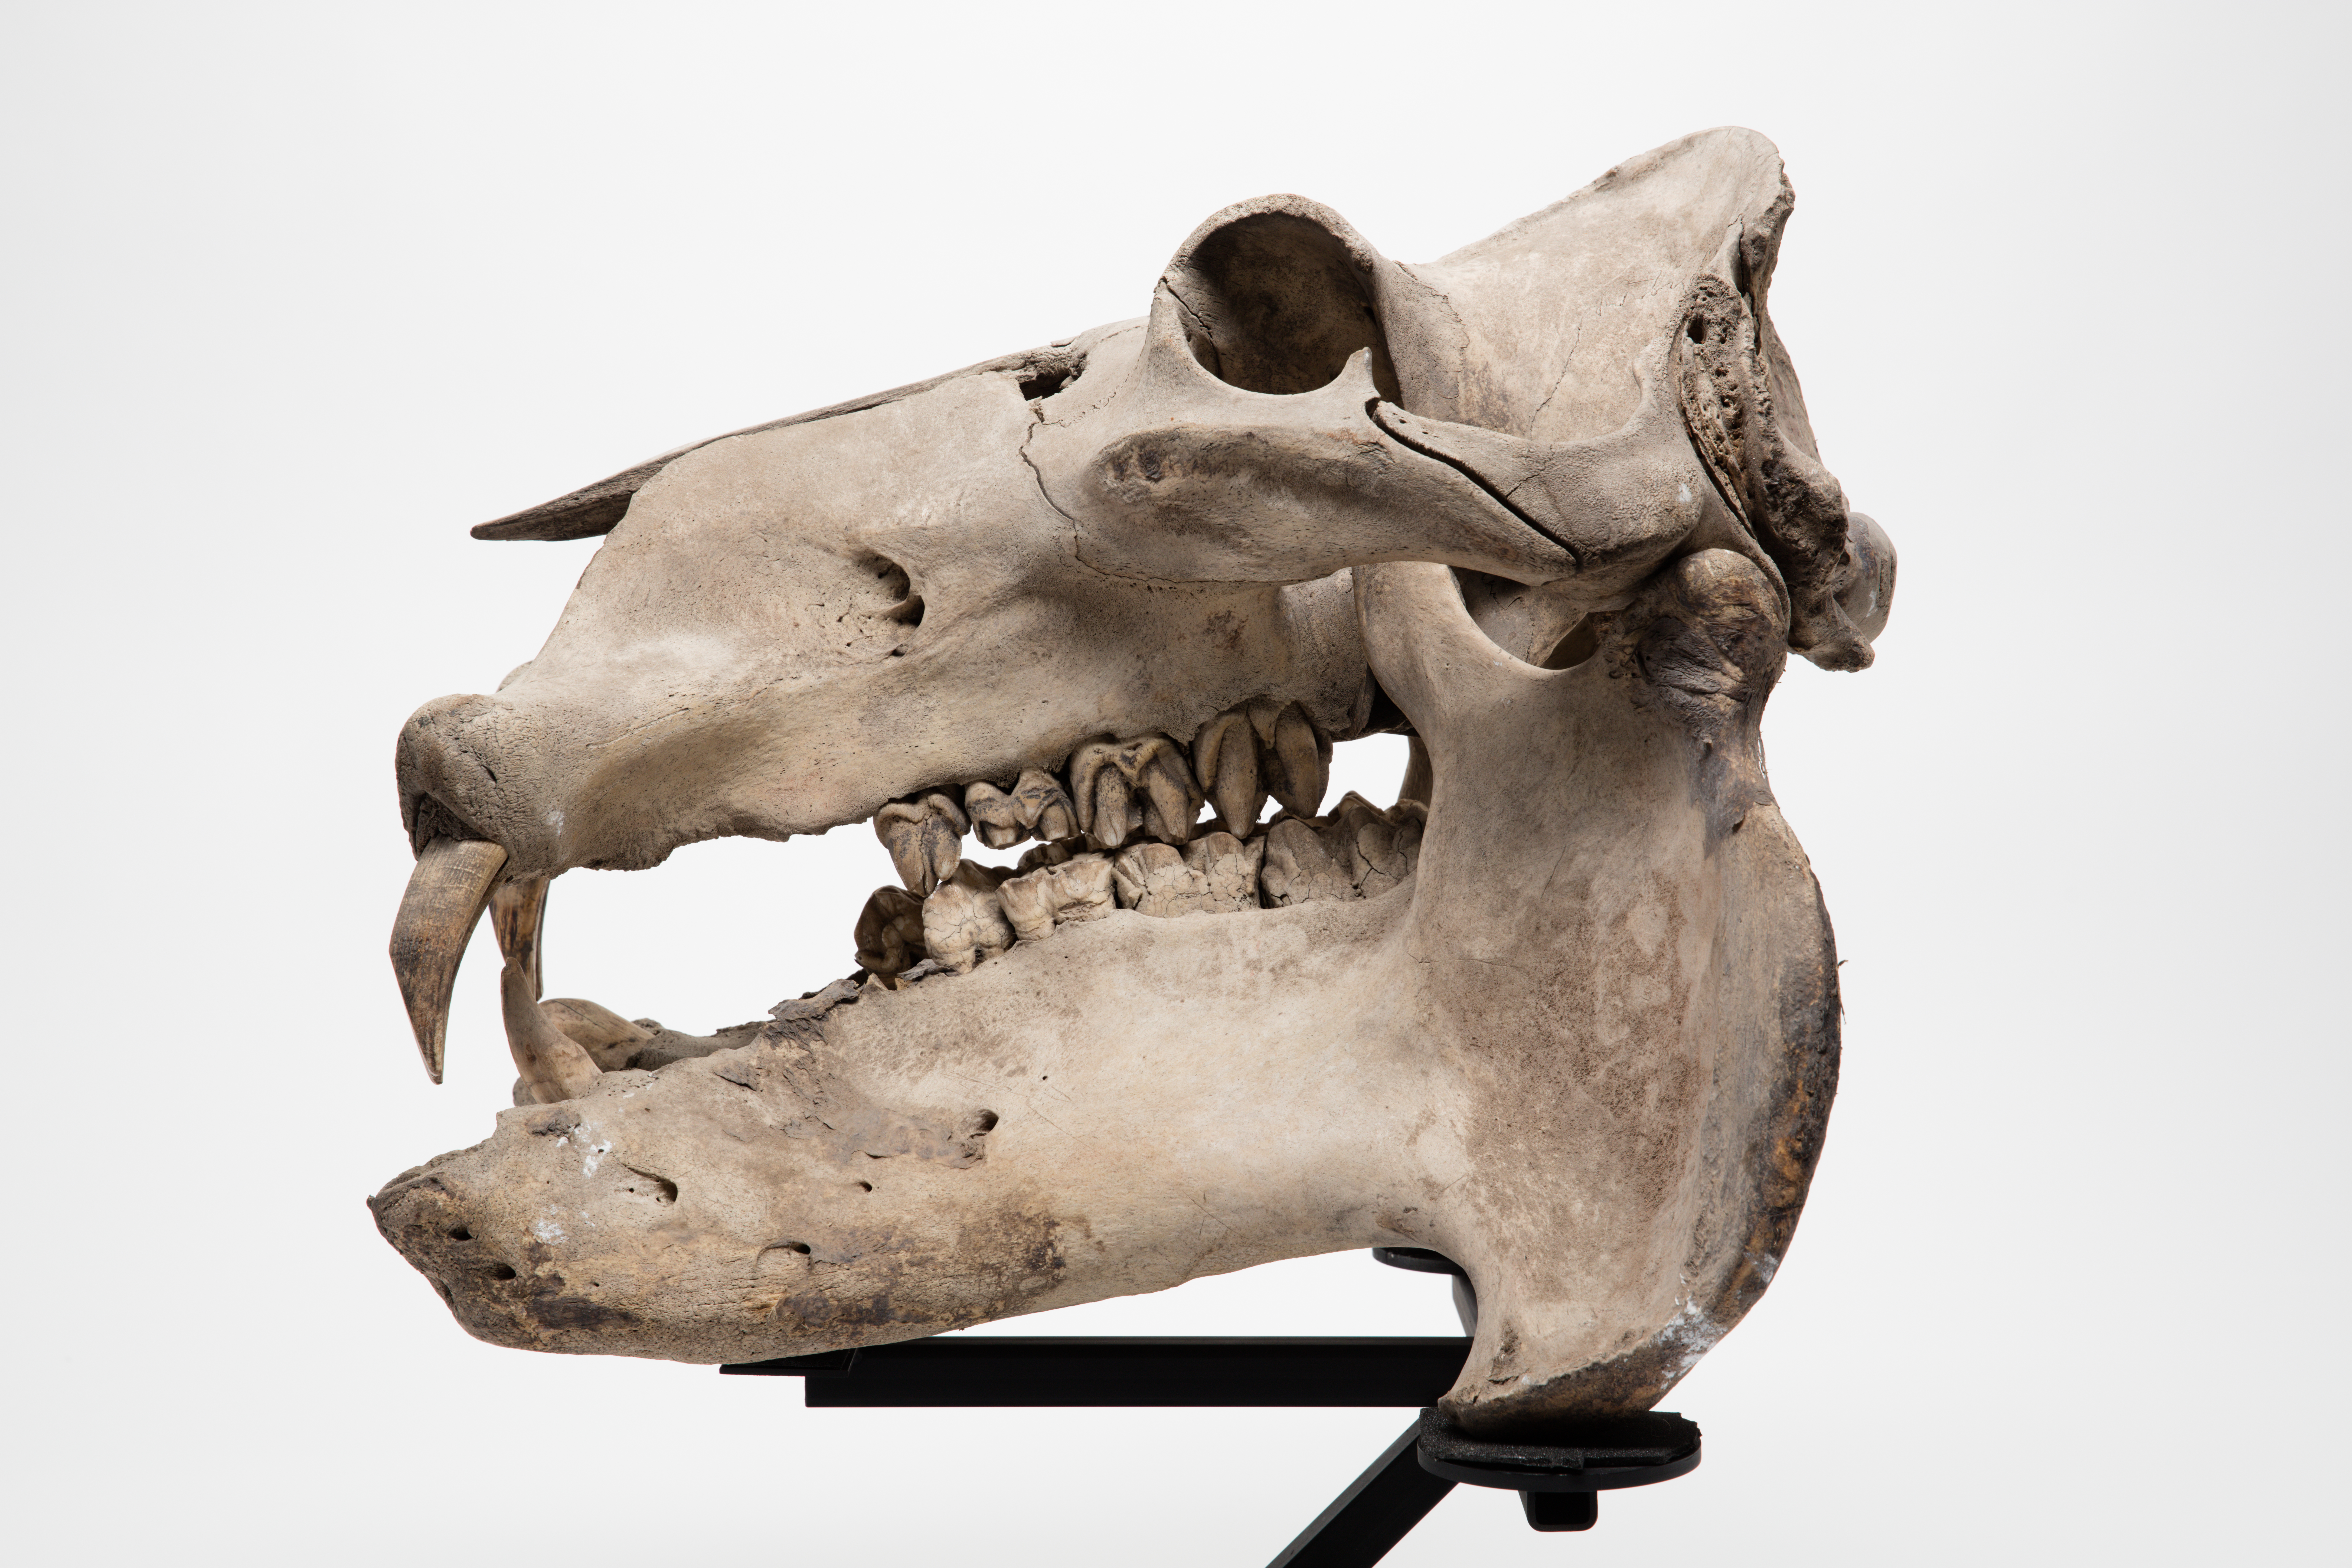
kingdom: Animalia
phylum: Chordata
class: Mammalia
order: Artiodactyla
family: Hippopotamidae
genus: Hippopotamus
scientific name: Hippopotamus amphibius
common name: Common hippopotamus
